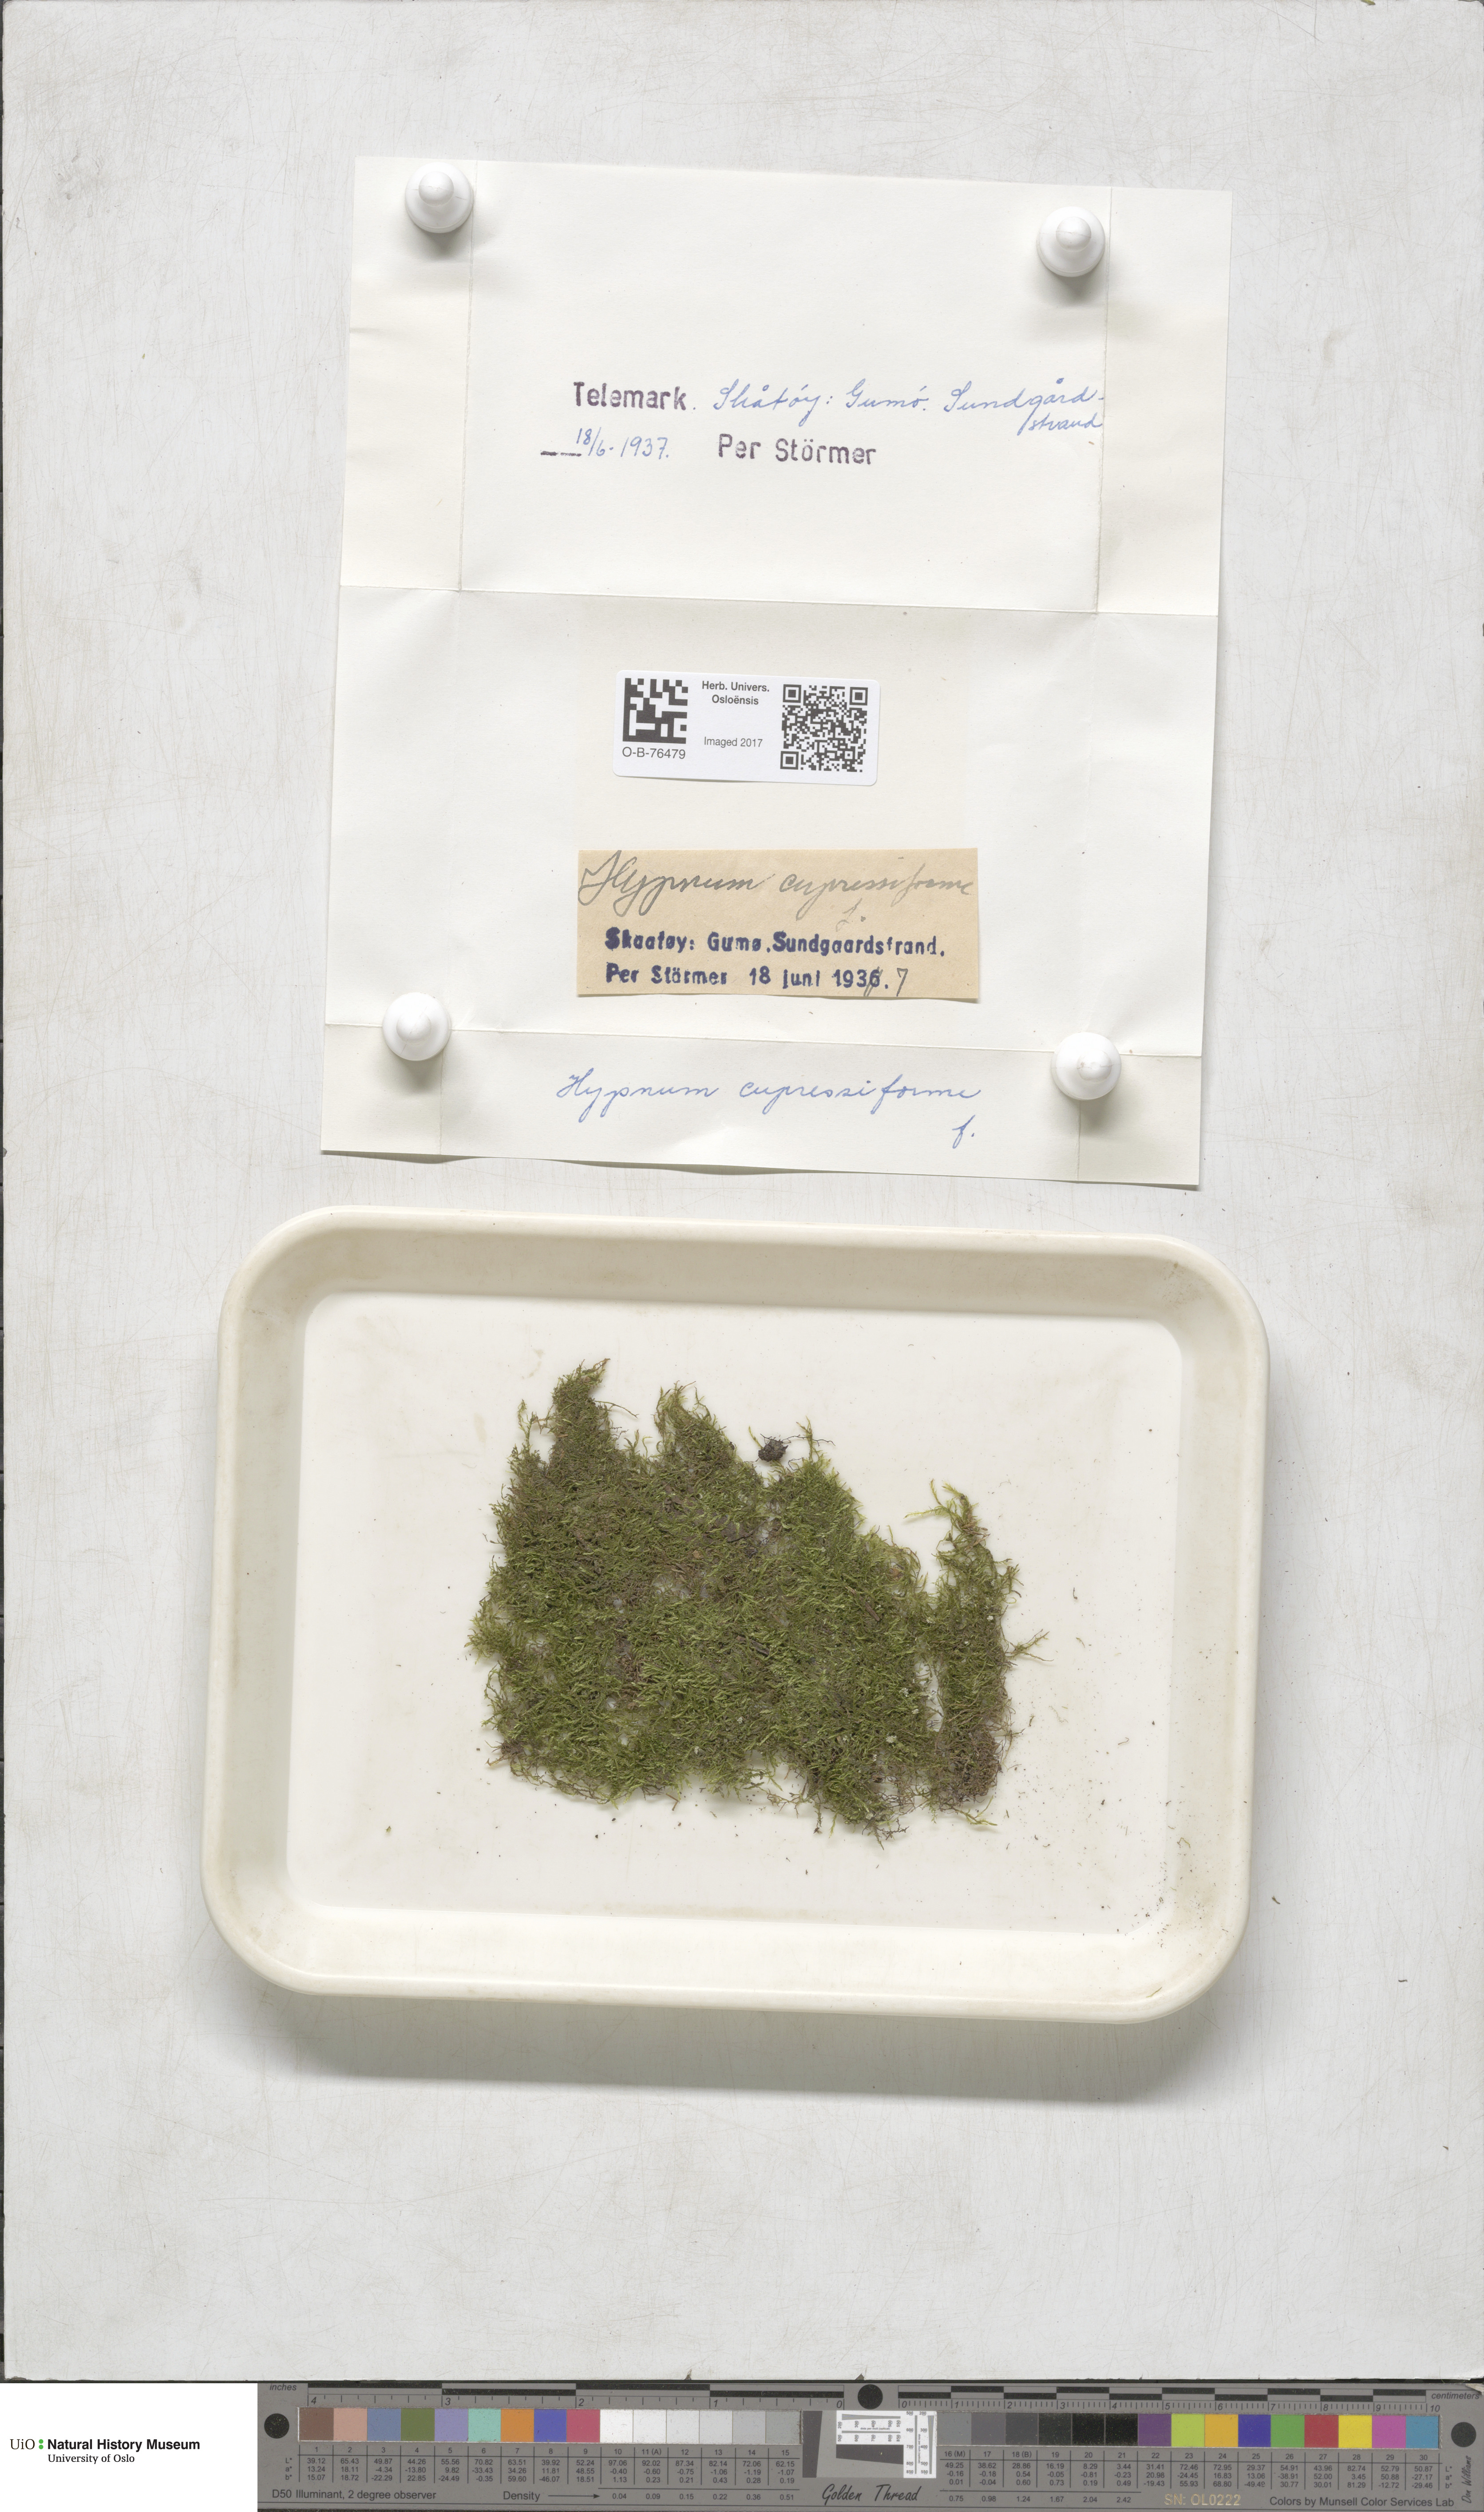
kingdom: Plantae
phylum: Bryophyta
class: Bryopsida
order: Hypnales
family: Hypnaceae
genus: Hypnum
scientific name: Hypnum cupressiforme
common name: Cypress-leaved plait-moss
